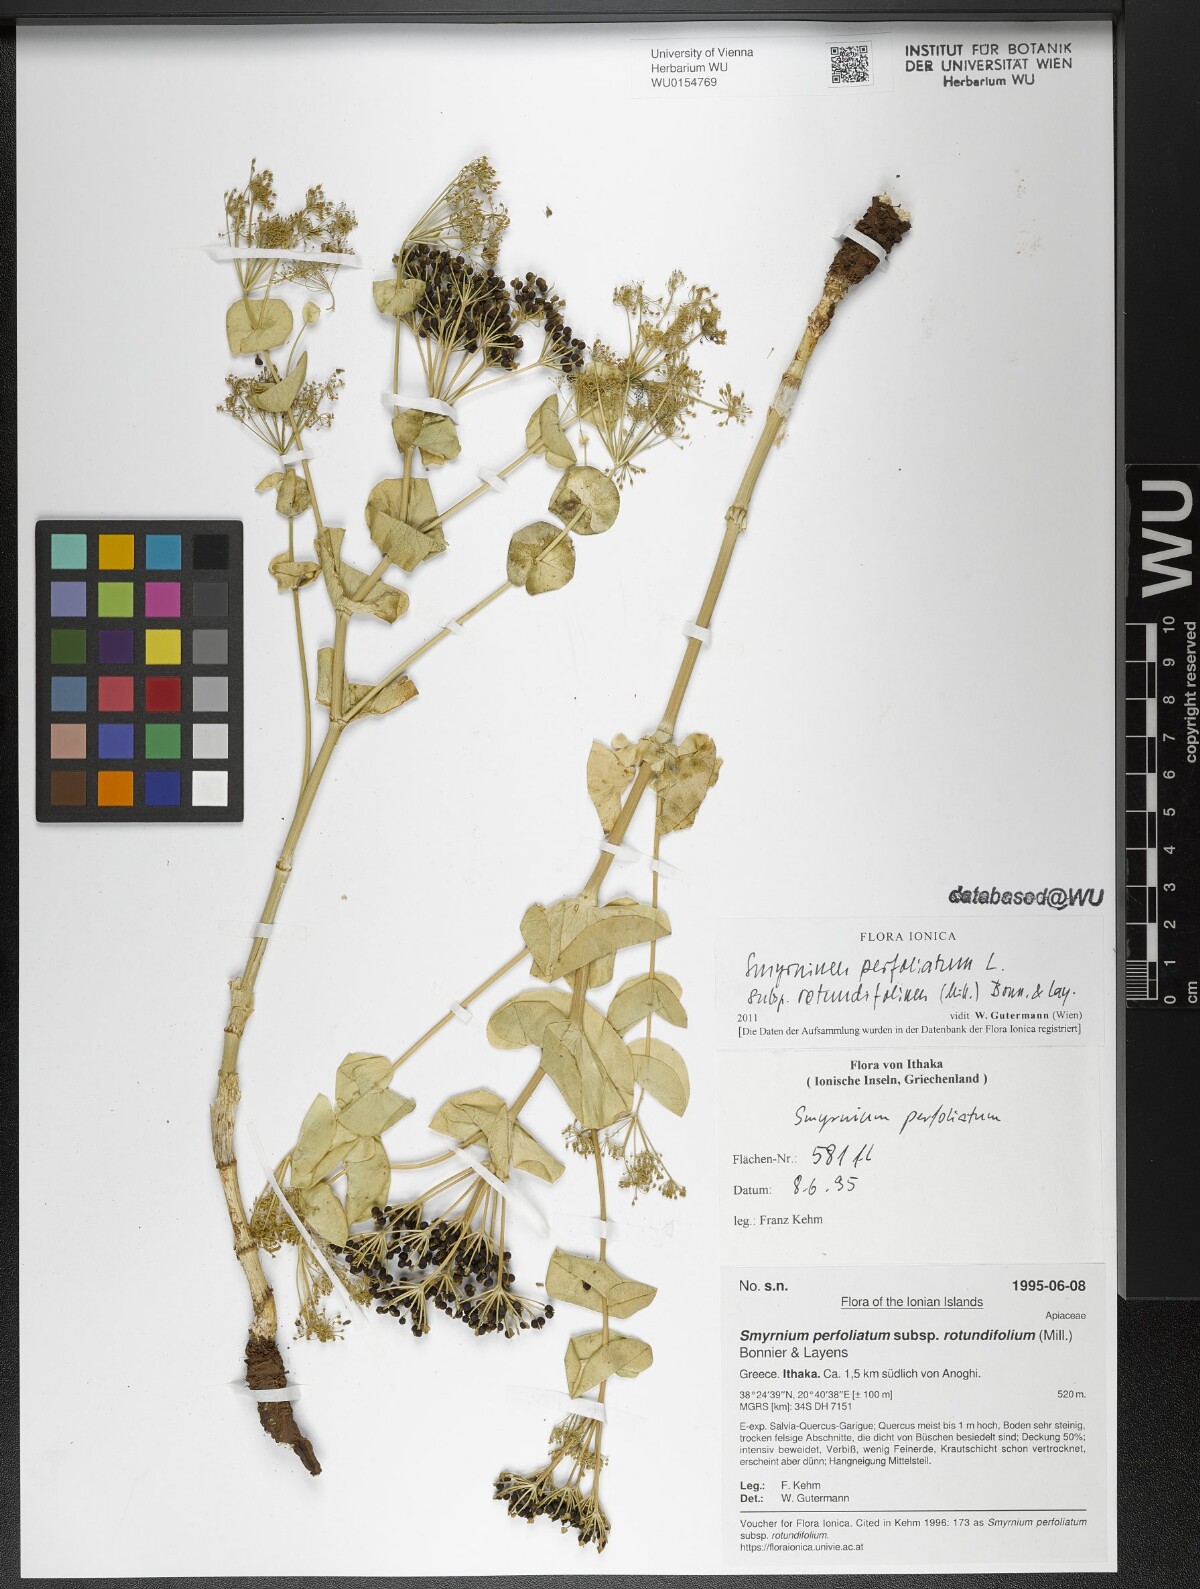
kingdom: Plantae
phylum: Tracheophyta
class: Magnoliopsida
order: Apiales
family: Apiaceae
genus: Smyrnium
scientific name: Smyrnium perfoliatum
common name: Perfoliate alexanders
